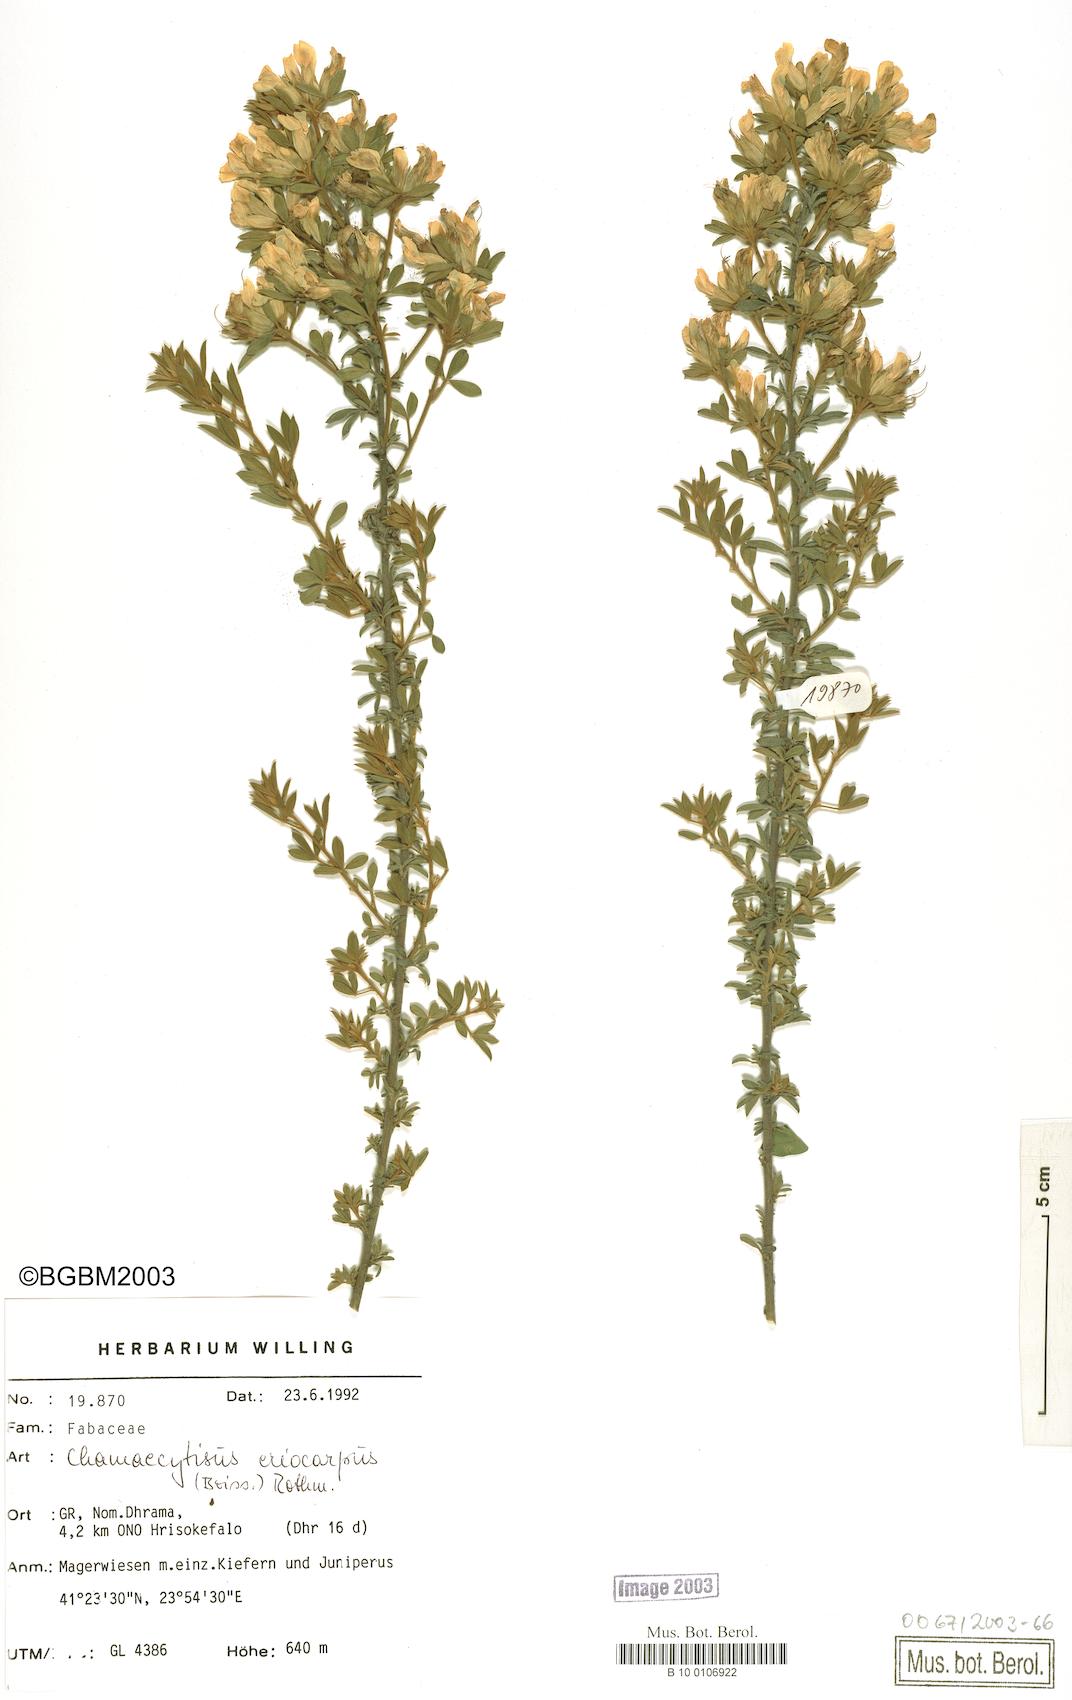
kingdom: Plantae
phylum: Tracheophyta
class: Magnoliopsida
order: Fabales
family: Fabaceae
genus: Chamaecytisus
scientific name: Chamaecytisus eriocarpus
